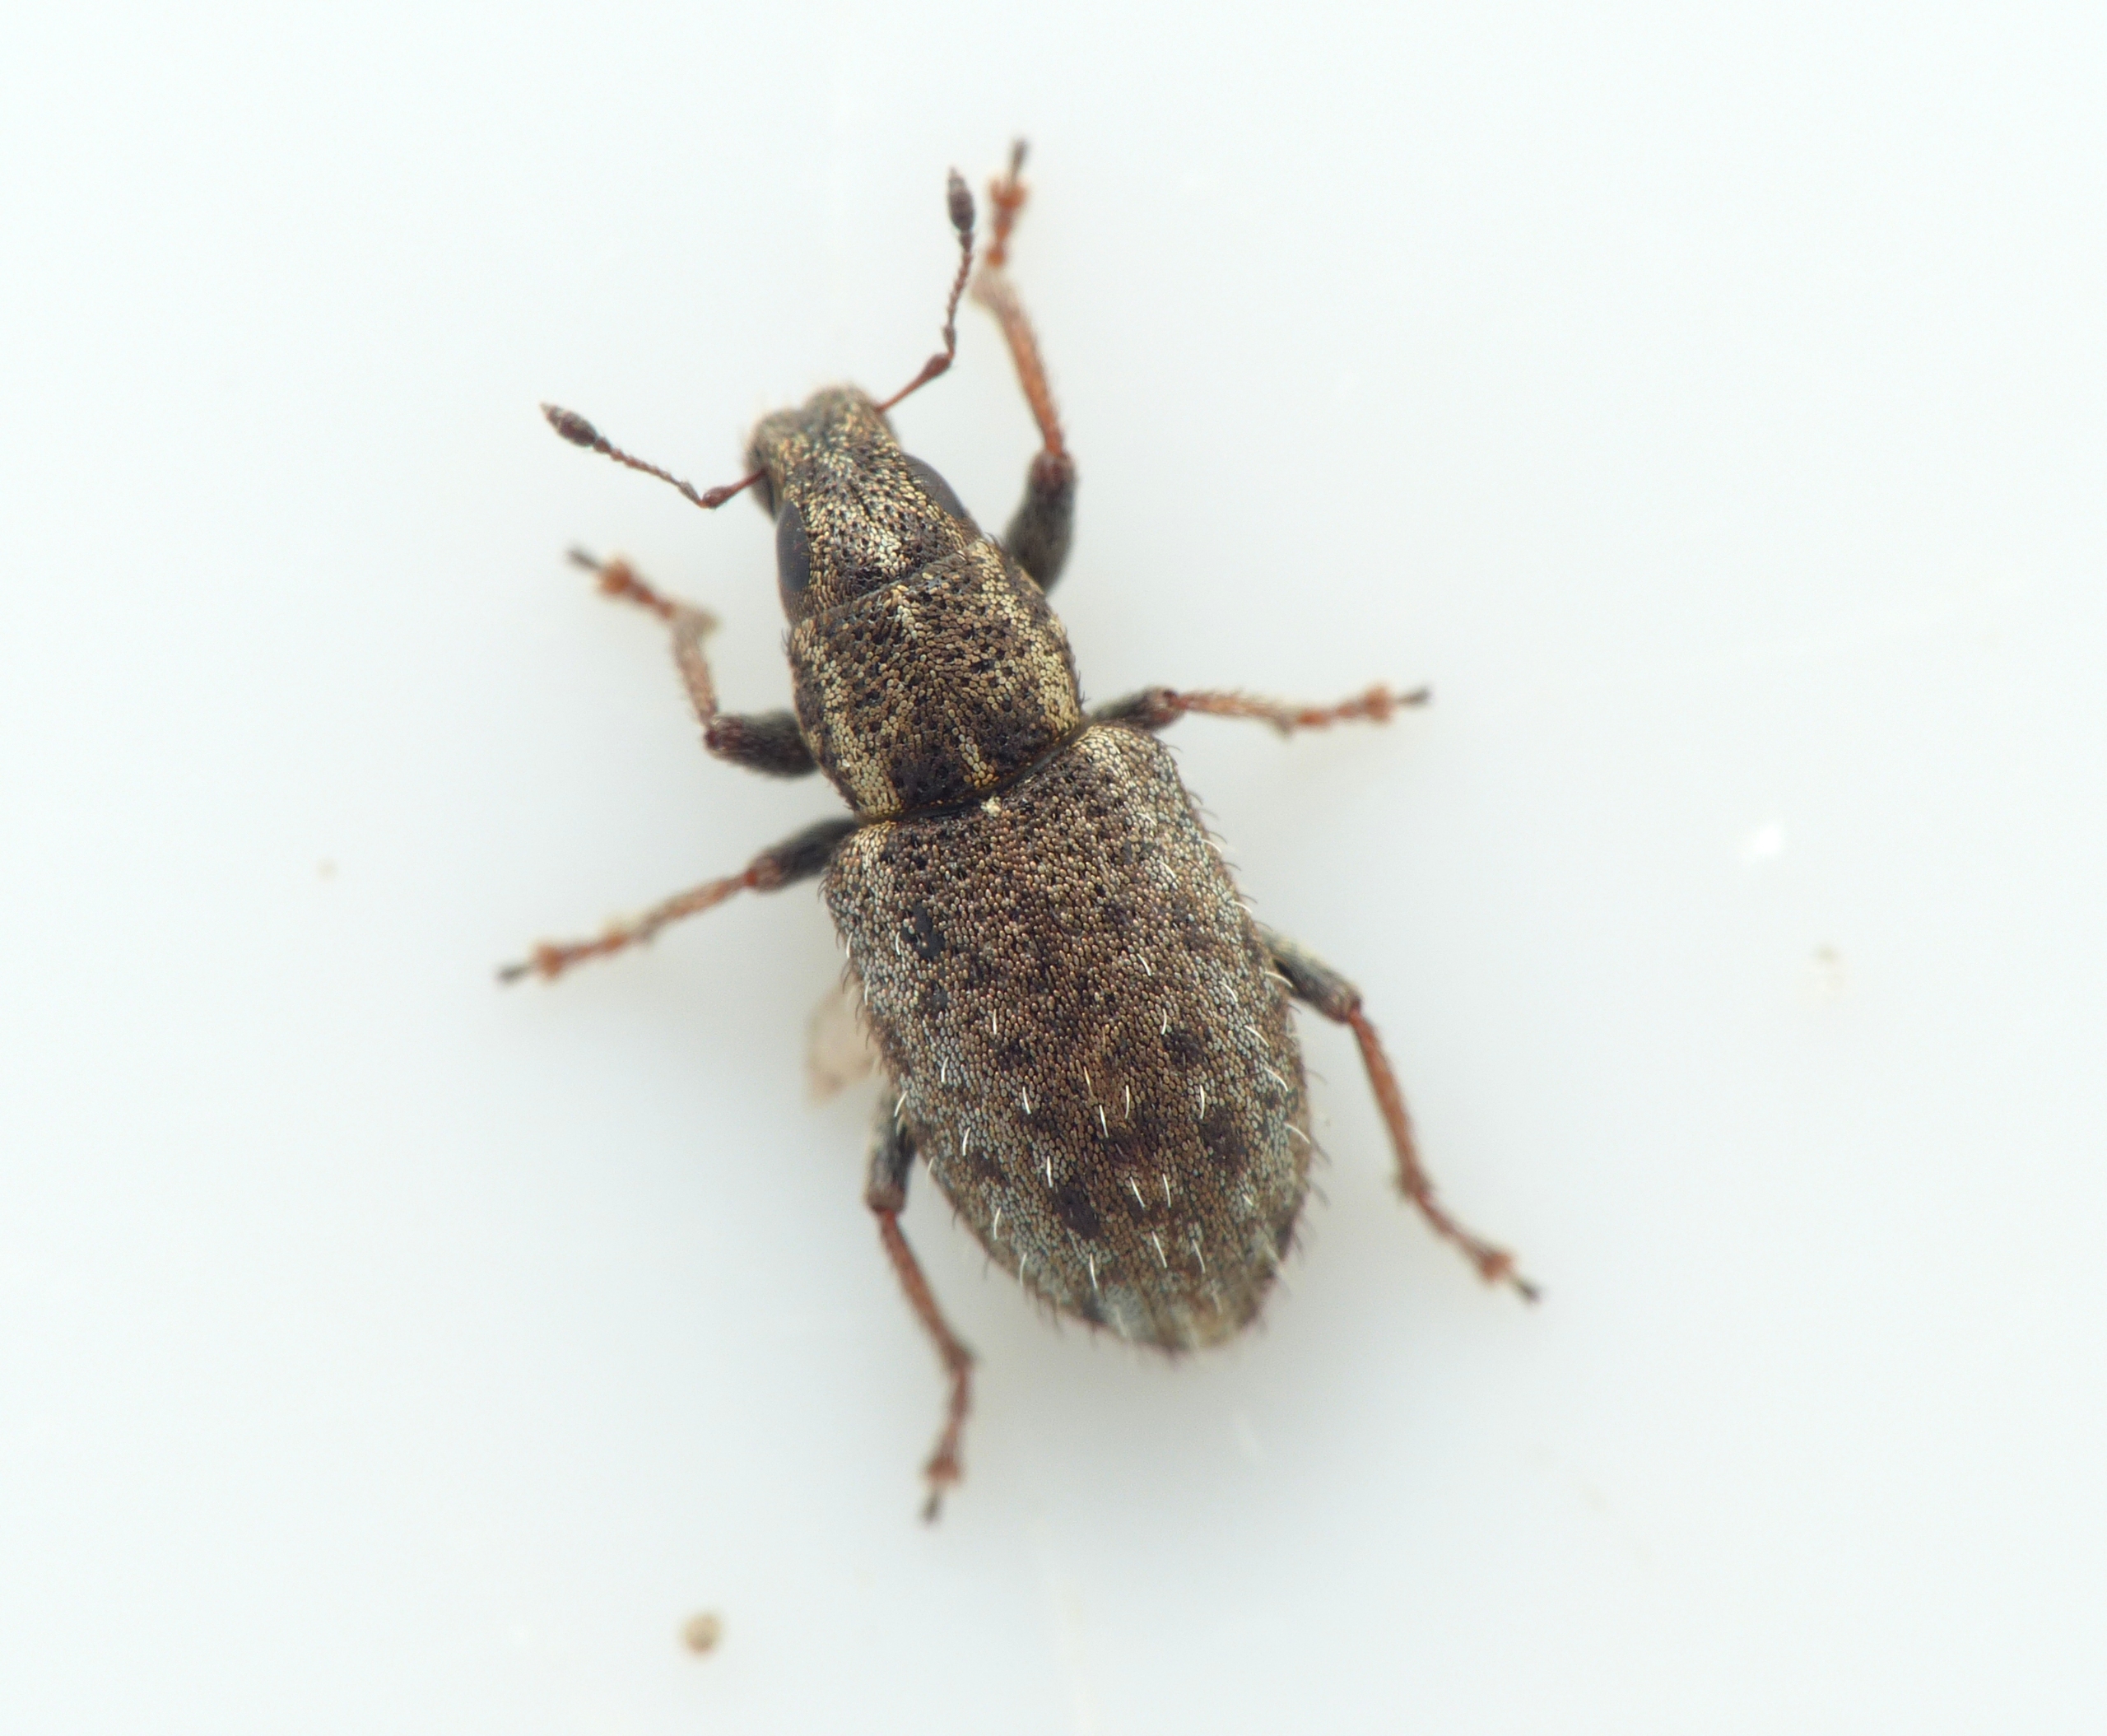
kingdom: Animalia
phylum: Arthropoda
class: Insecta
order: Coleoptera
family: Curculionidae
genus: Sitona
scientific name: Sitona hispidulus
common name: Kløverbladrandbille
